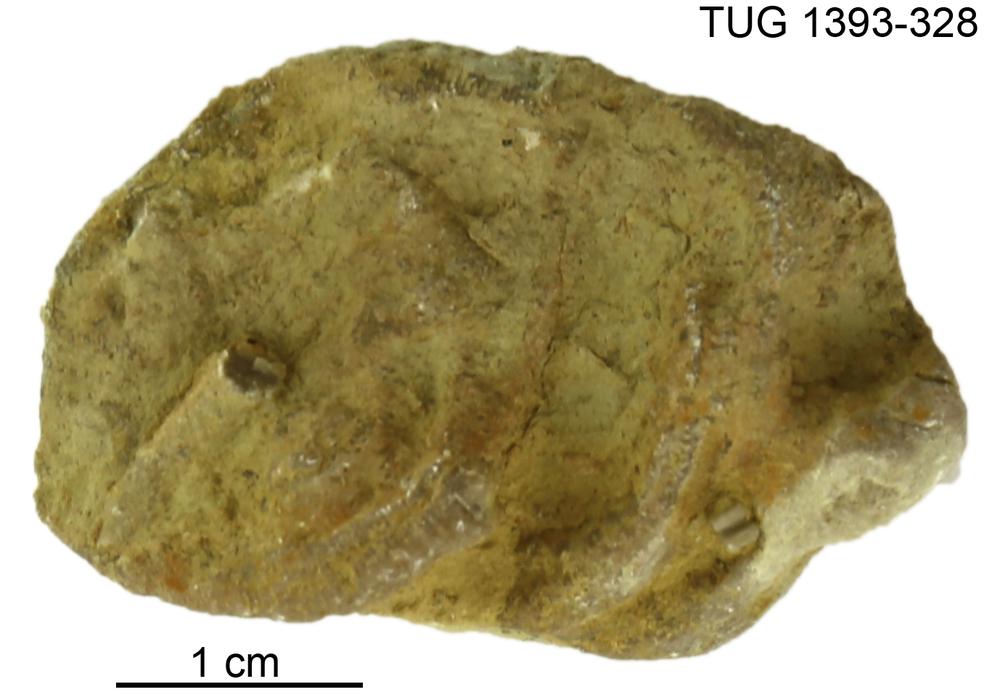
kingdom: Animalia
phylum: Bryozoa
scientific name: Bryozoa
